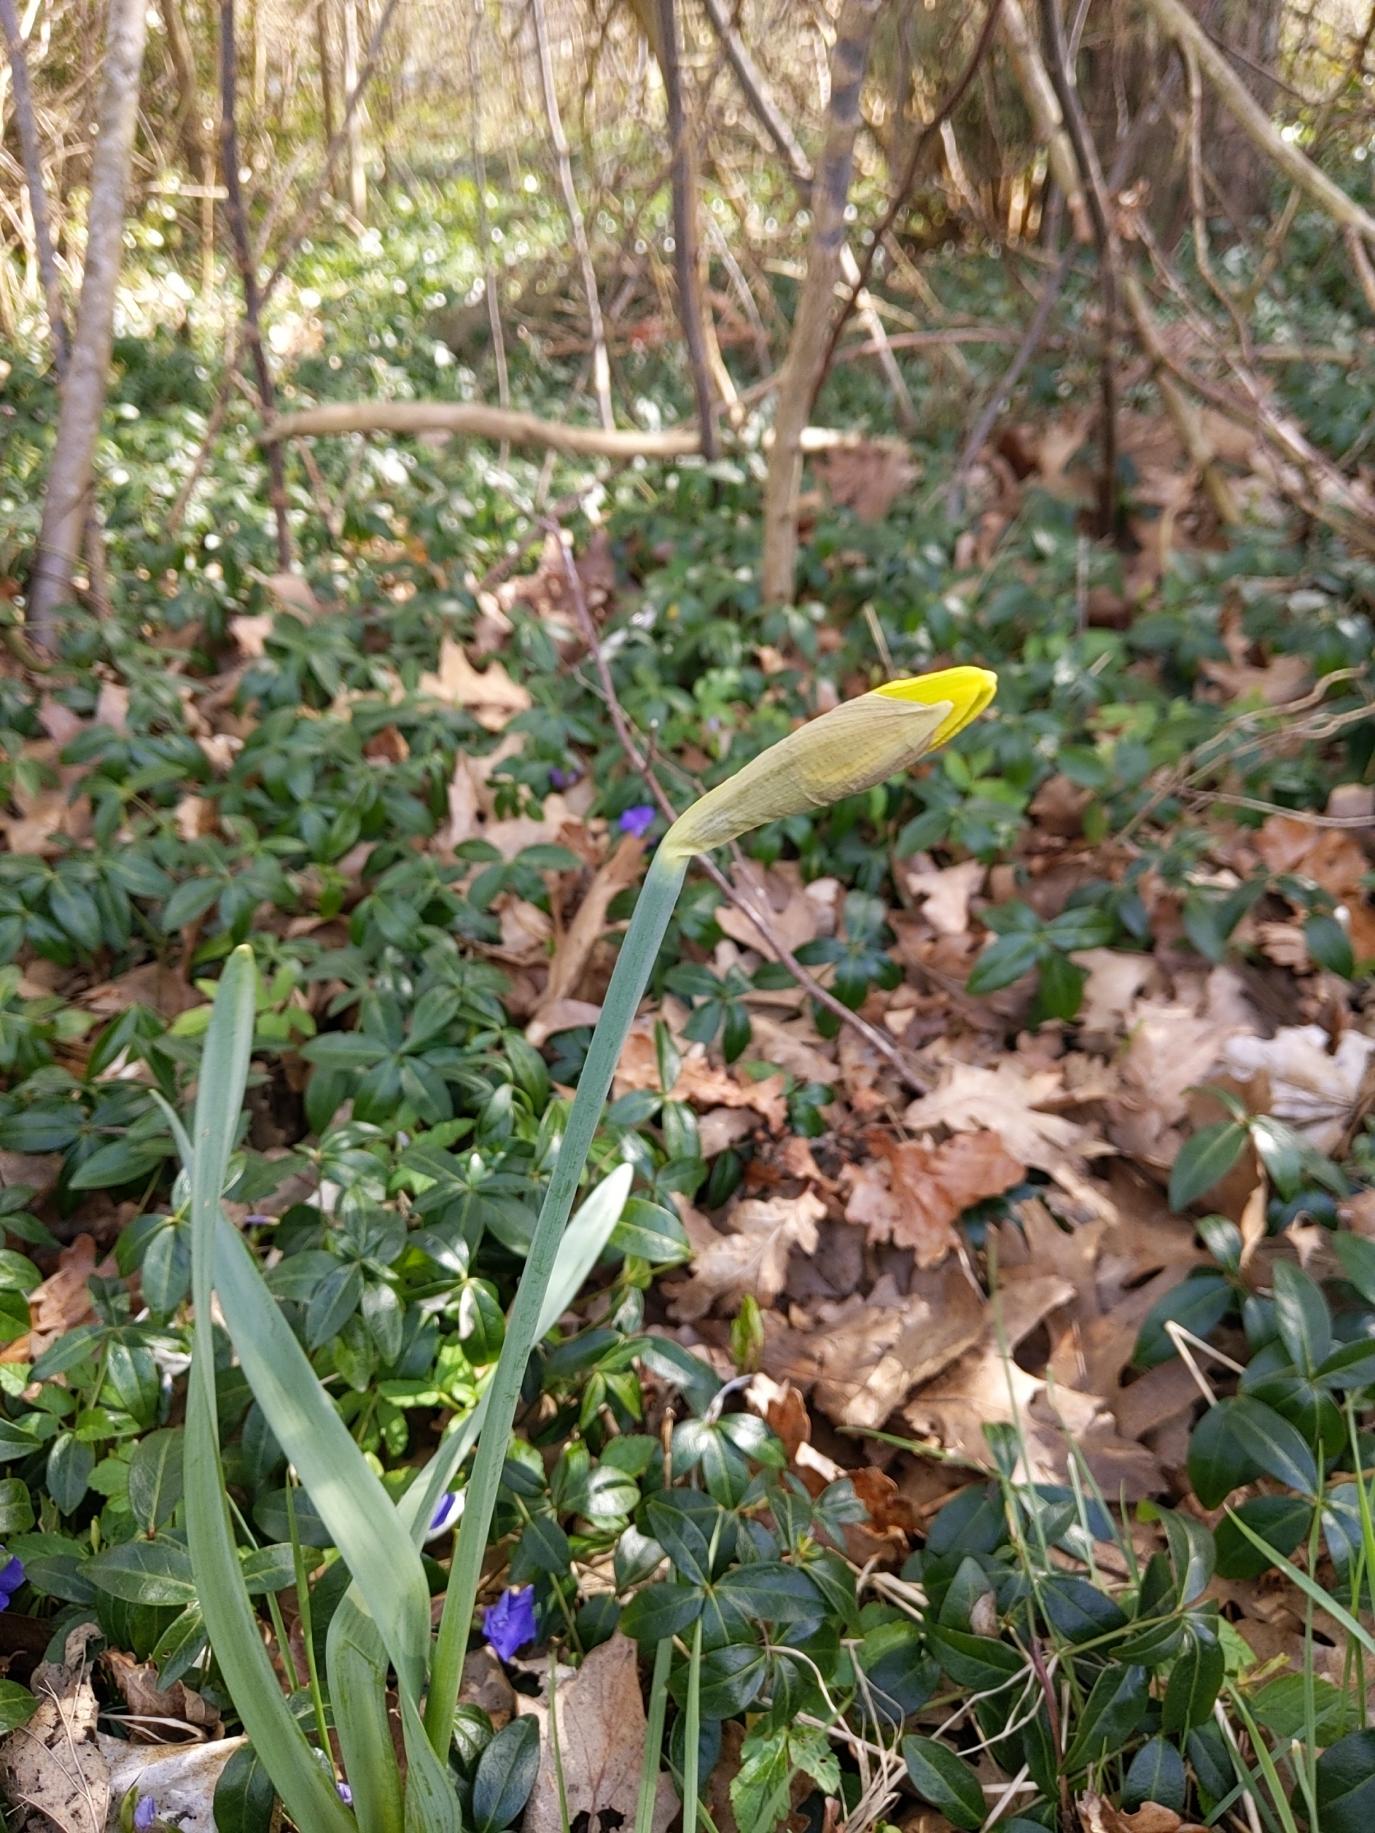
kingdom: Plantae
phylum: Tracheophyta
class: Liliopsida
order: Asparagales
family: Amaryllidaceae
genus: Narcissus
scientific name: Narcissus pseudonarcissus
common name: Påskelilje
